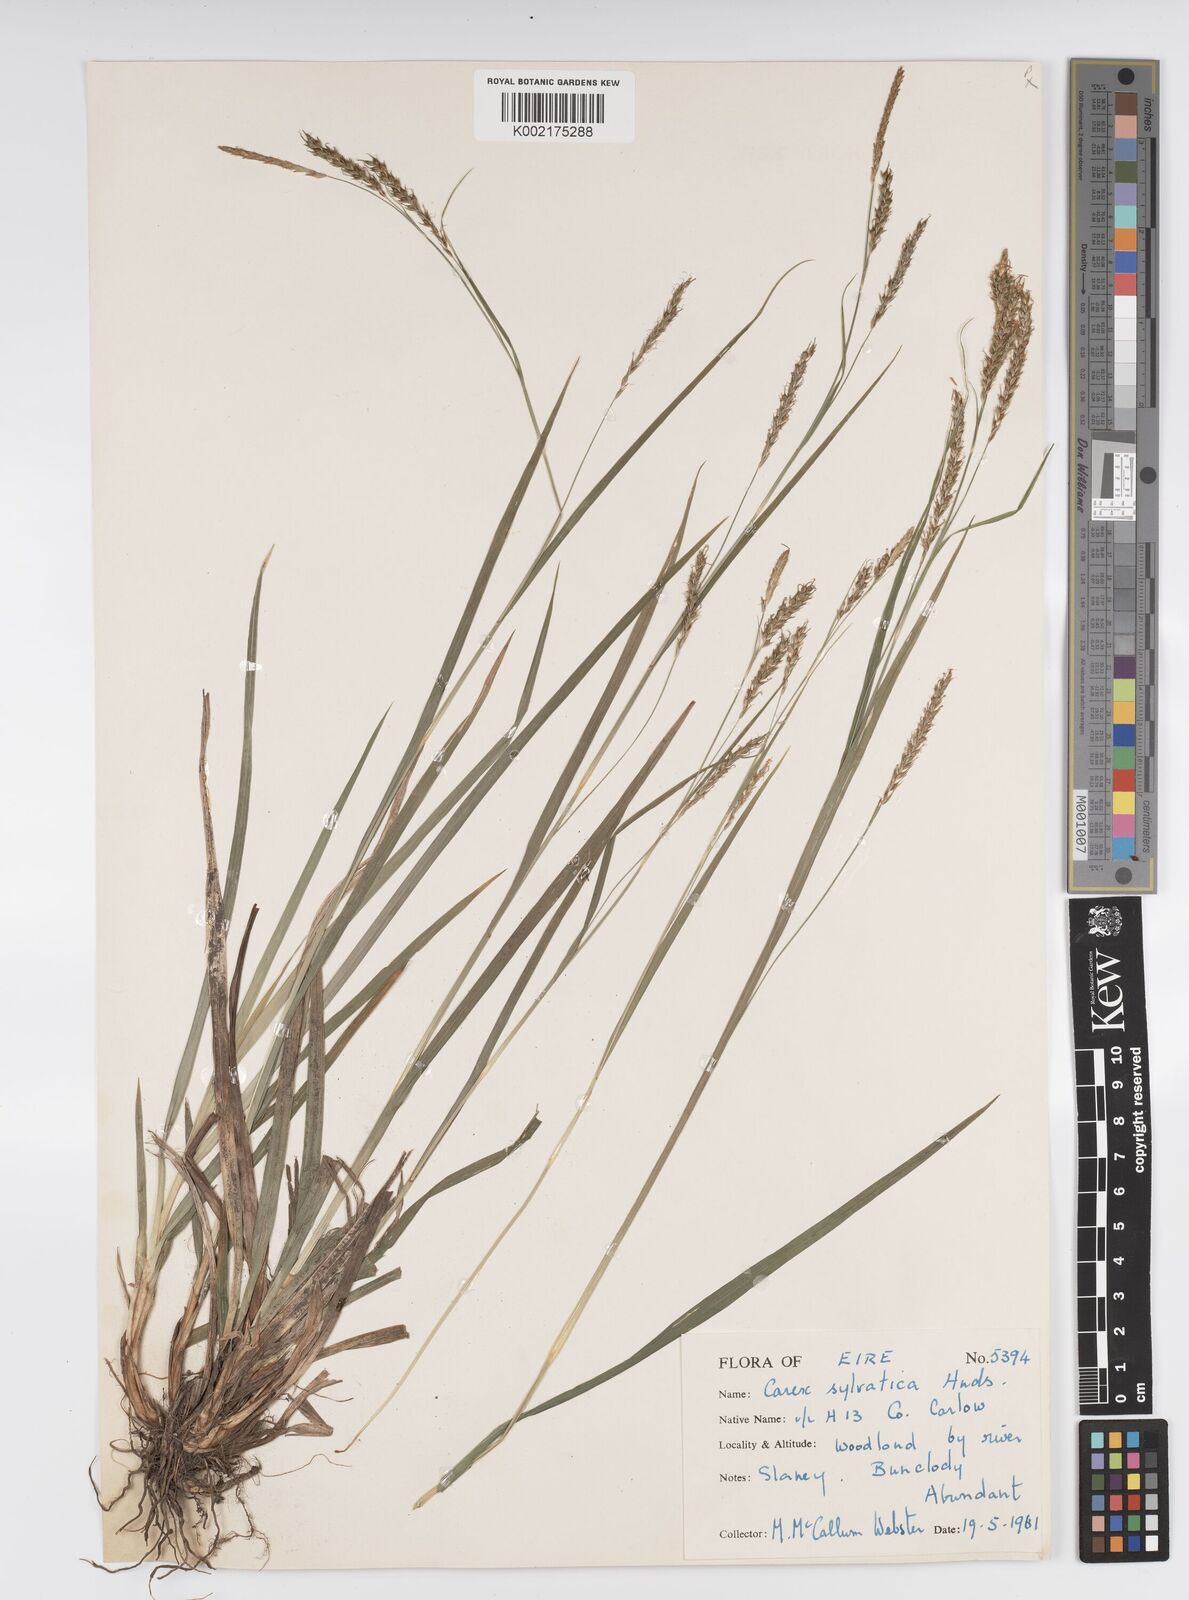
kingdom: Plantae
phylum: Tracheophyta
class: Liliopsida
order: Poales
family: Cyperaceae
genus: Carex
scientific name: Carex sylvatica
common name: Wood-sedge
